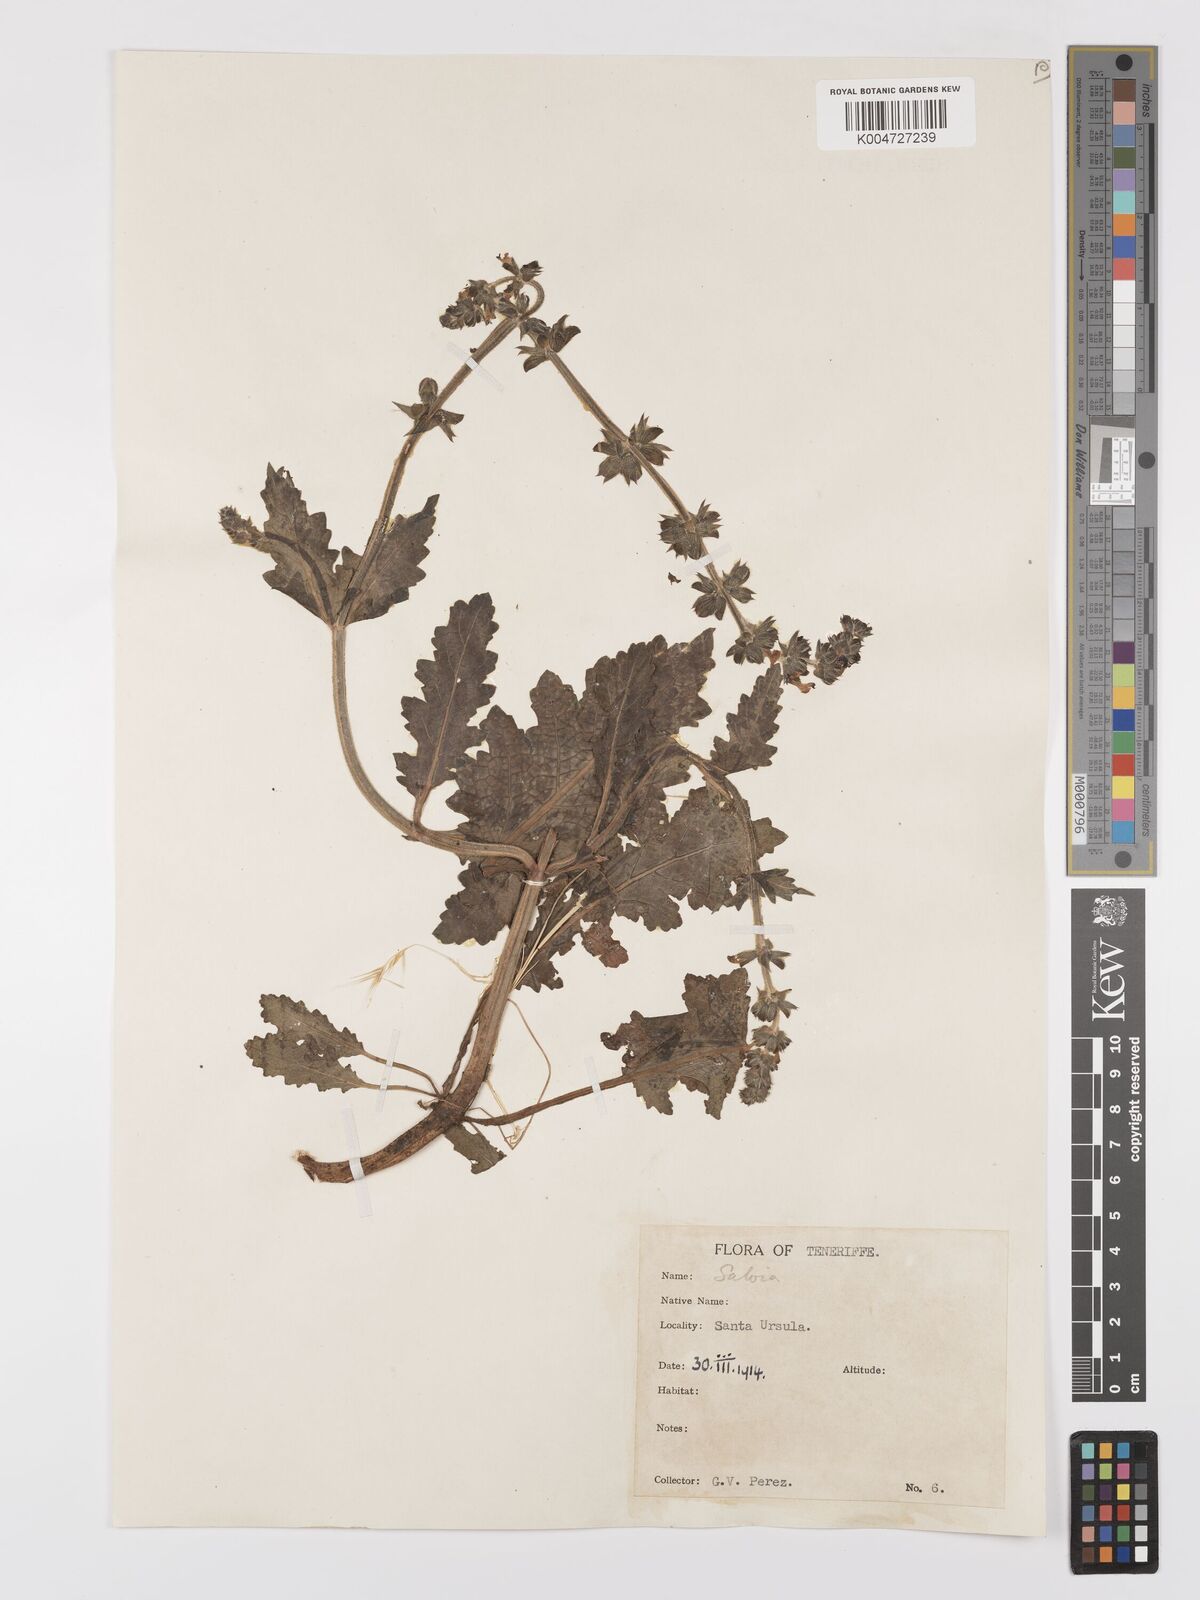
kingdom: Plantae
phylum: Tracheophyta
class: Magnoliopsida
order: Lamiales
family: Lamiaceae
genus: Salvia
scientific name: Salvia verbenaca
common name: Wild clary
